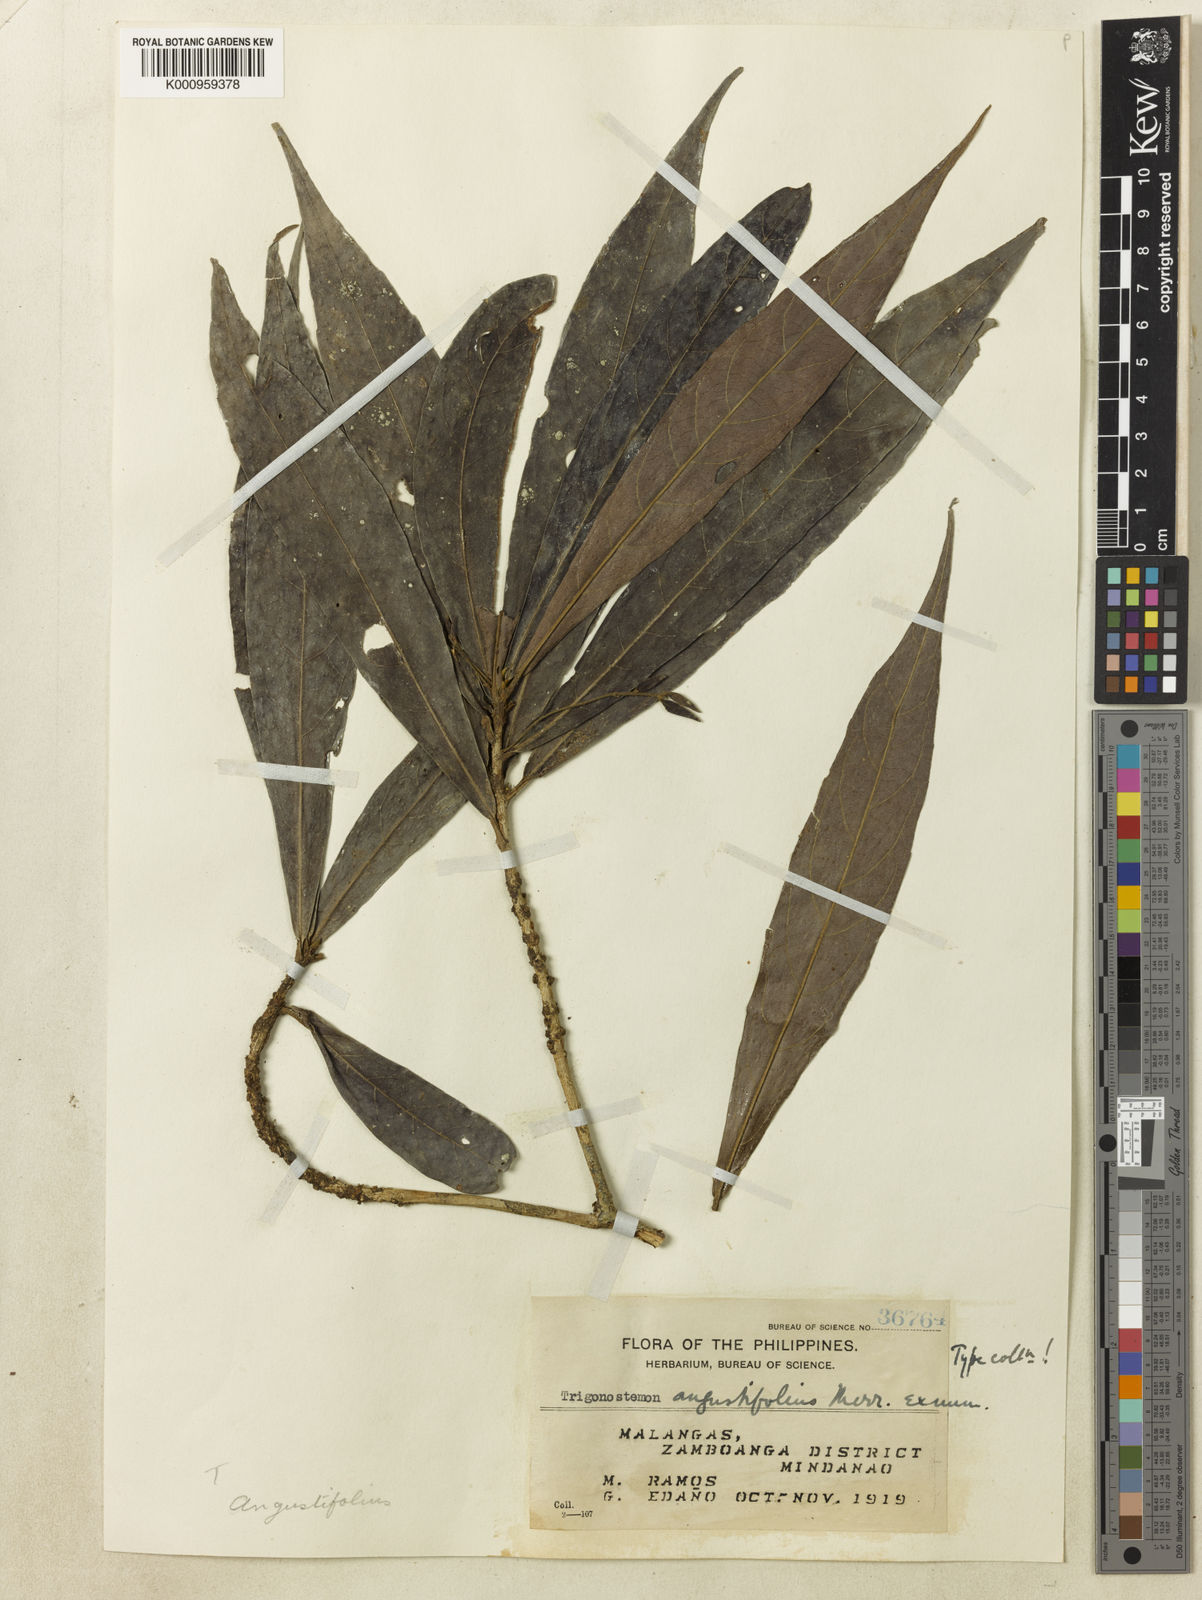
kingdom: Plantae
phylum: Tracheophyta
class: Magnoliopsida
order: Malpighiales
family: Euphorbiaceae
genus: Trigonostemon
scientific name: Trigonostemon angustifolius
